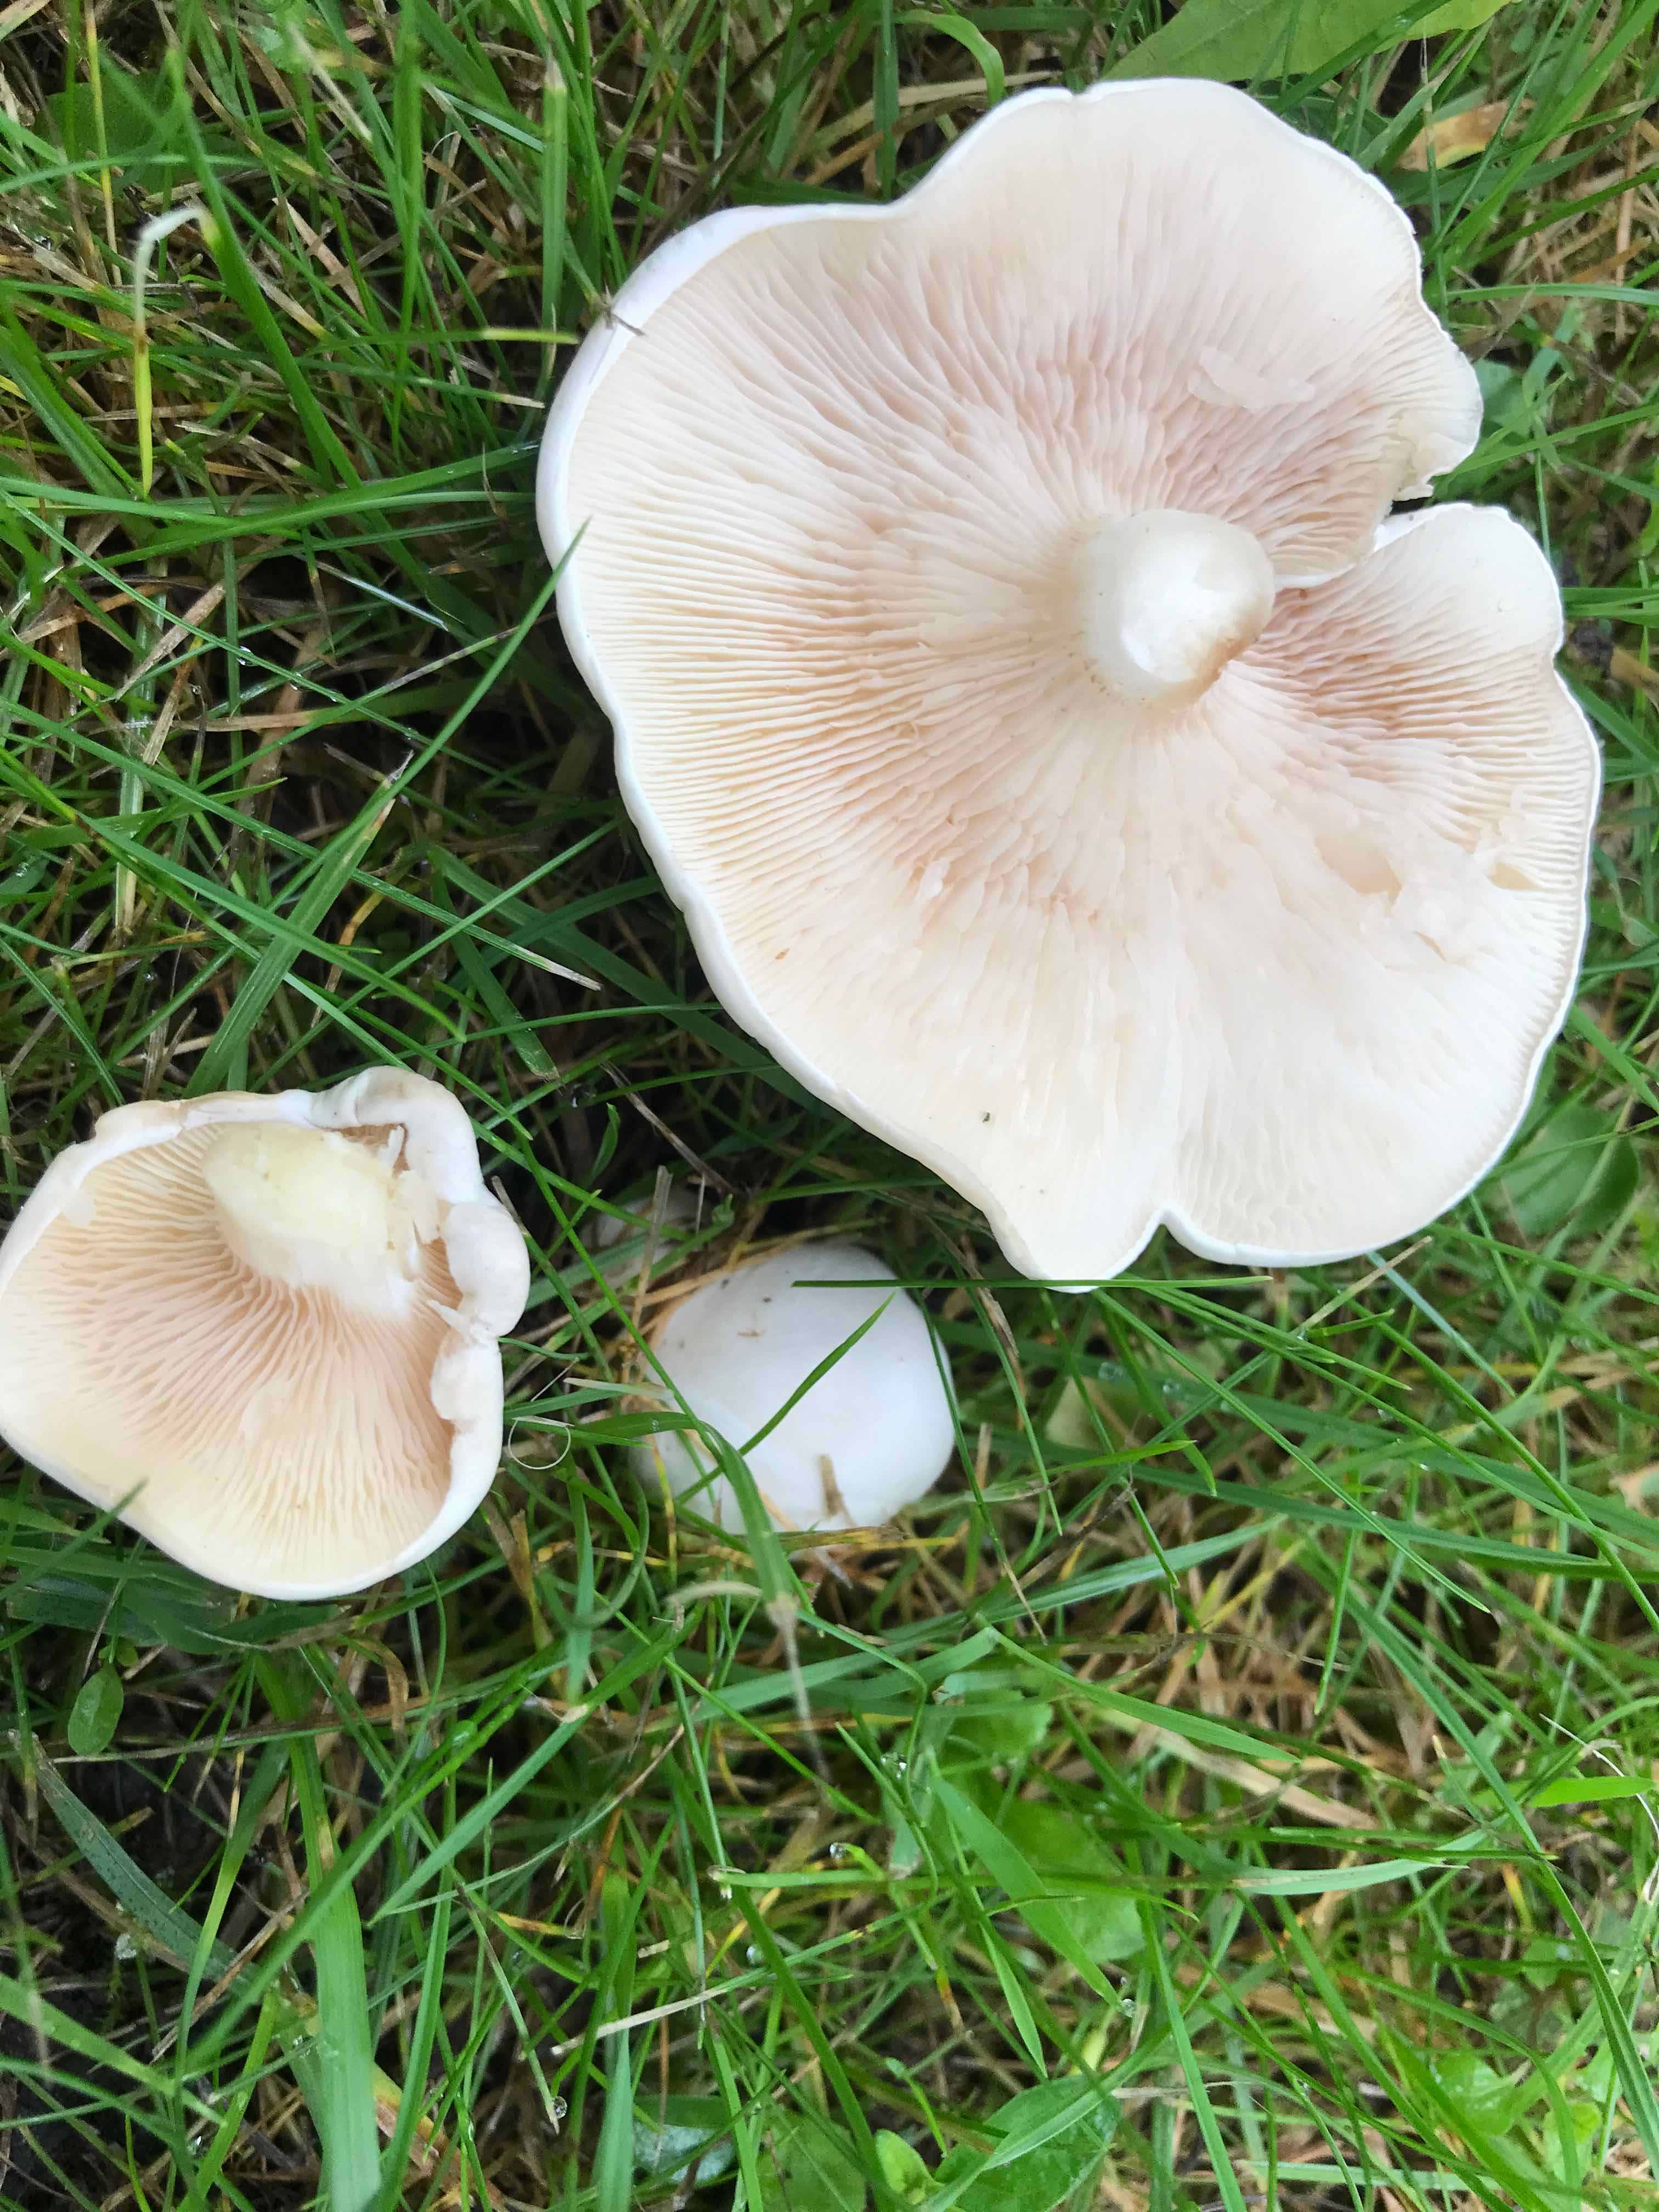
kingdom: Fungi
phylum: Basidiomycota
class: Agaricomycetes
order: Agaricales
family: Entolomataceae
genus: Clitopilus
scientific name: Clitopilus prunulus
